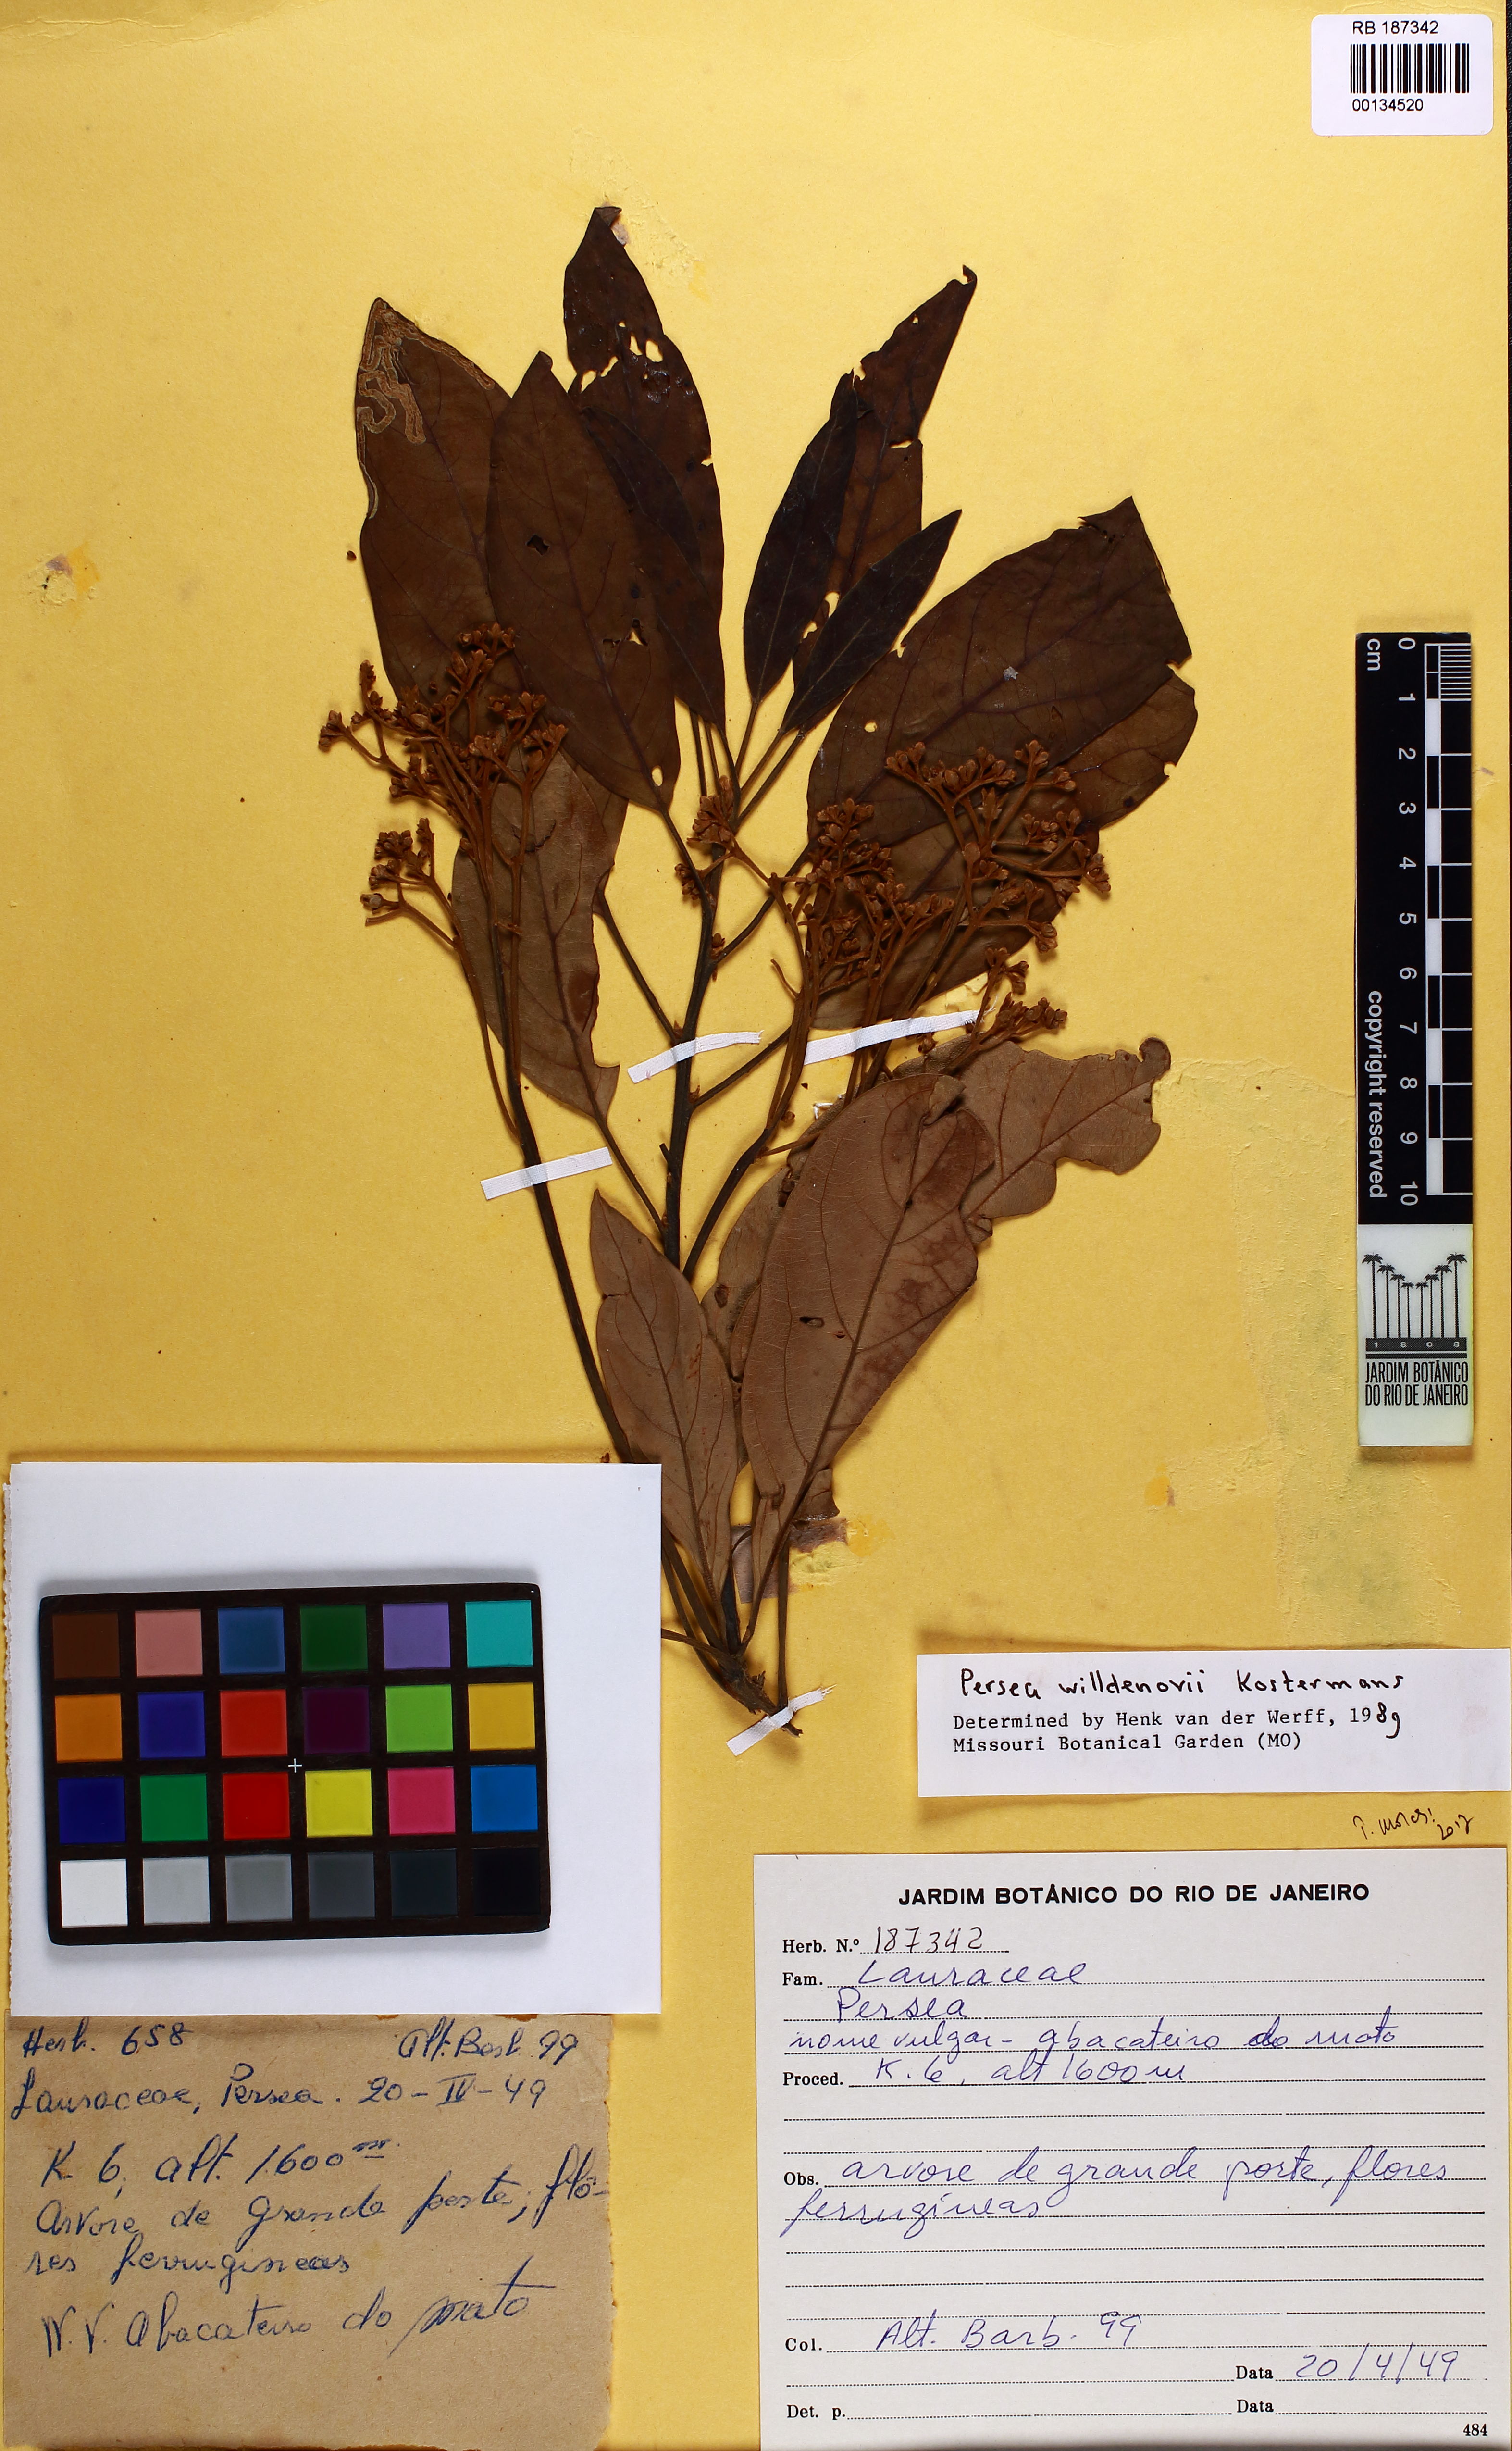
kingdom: Plantae
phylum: Tracheophyta
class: Magnoliopsida
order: Laurales
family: Lauraceae
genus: Persea
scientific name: Persea willdenovii
